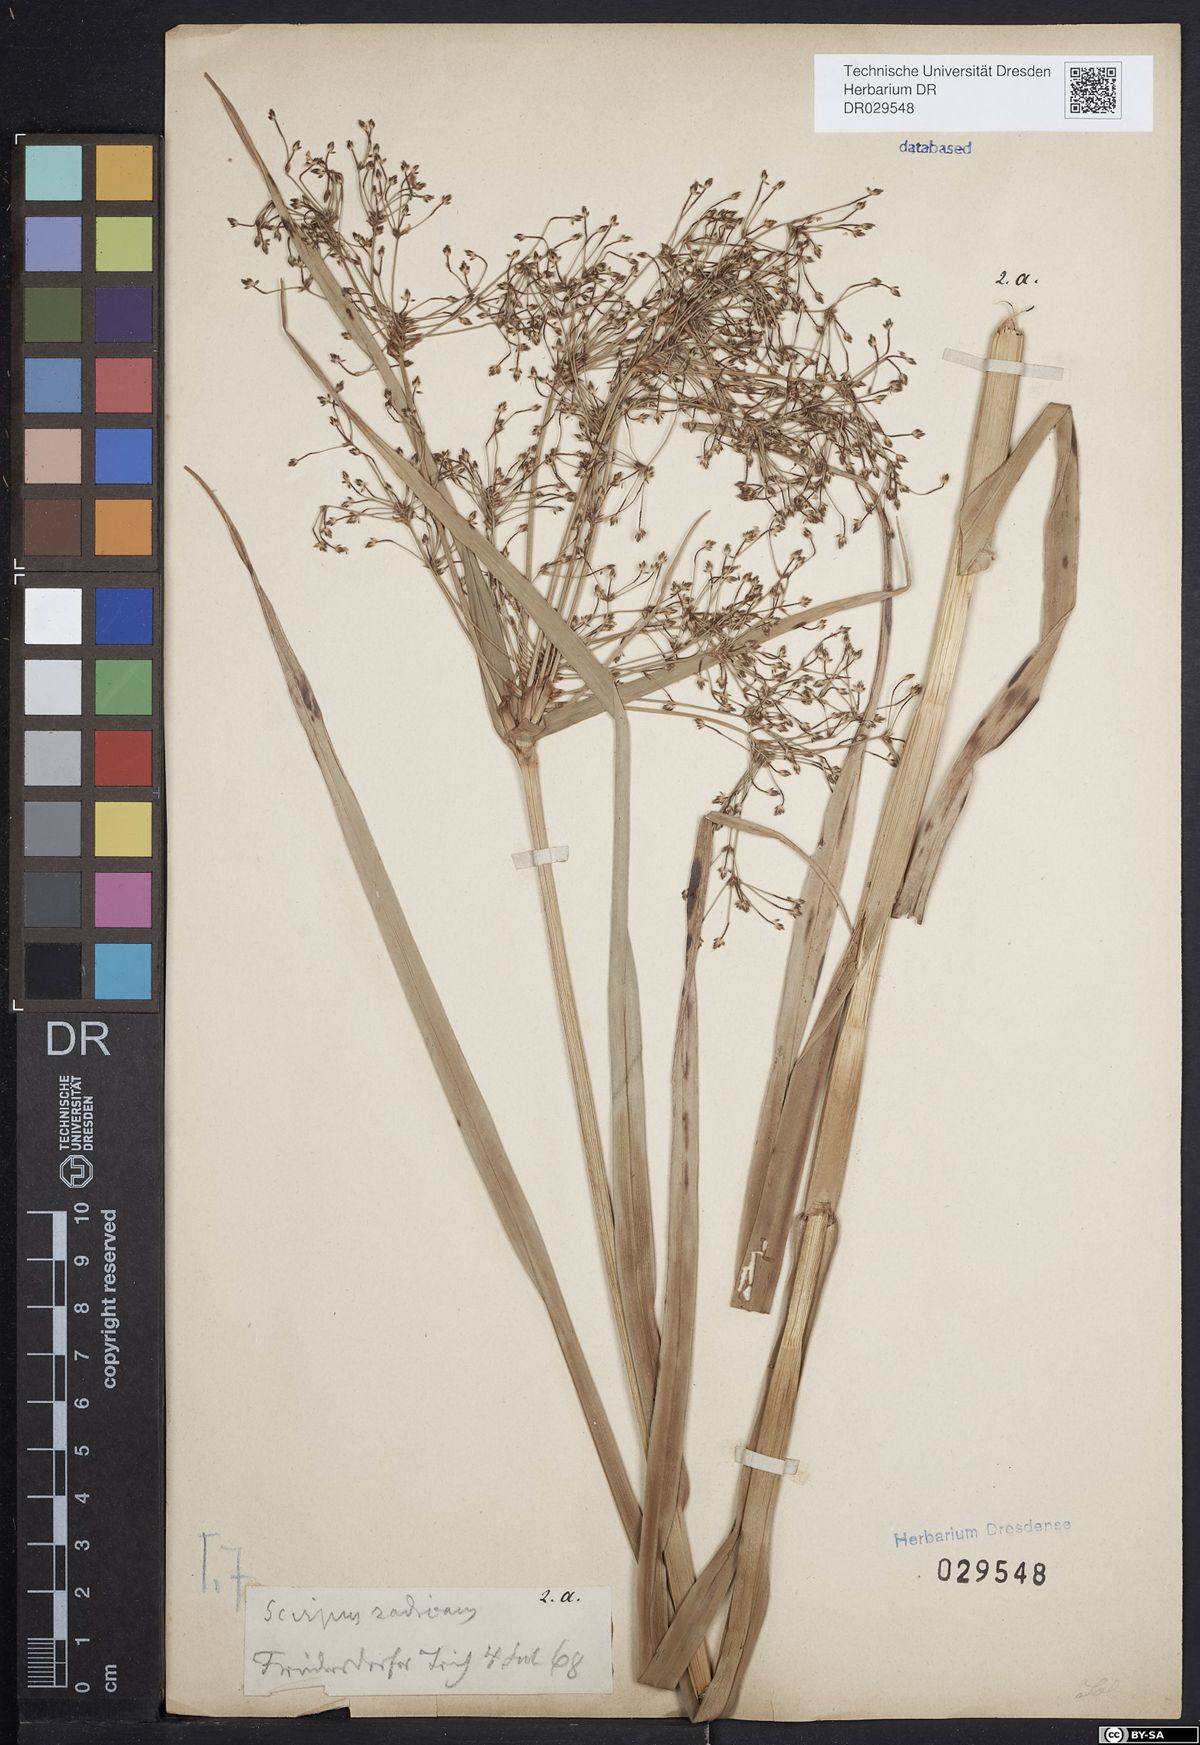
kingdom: Plantae
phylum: Tracheophyta
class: Liliopsida
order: Poales
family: Cyperaceae
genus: Scirpus
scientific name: Scirpus radicans
